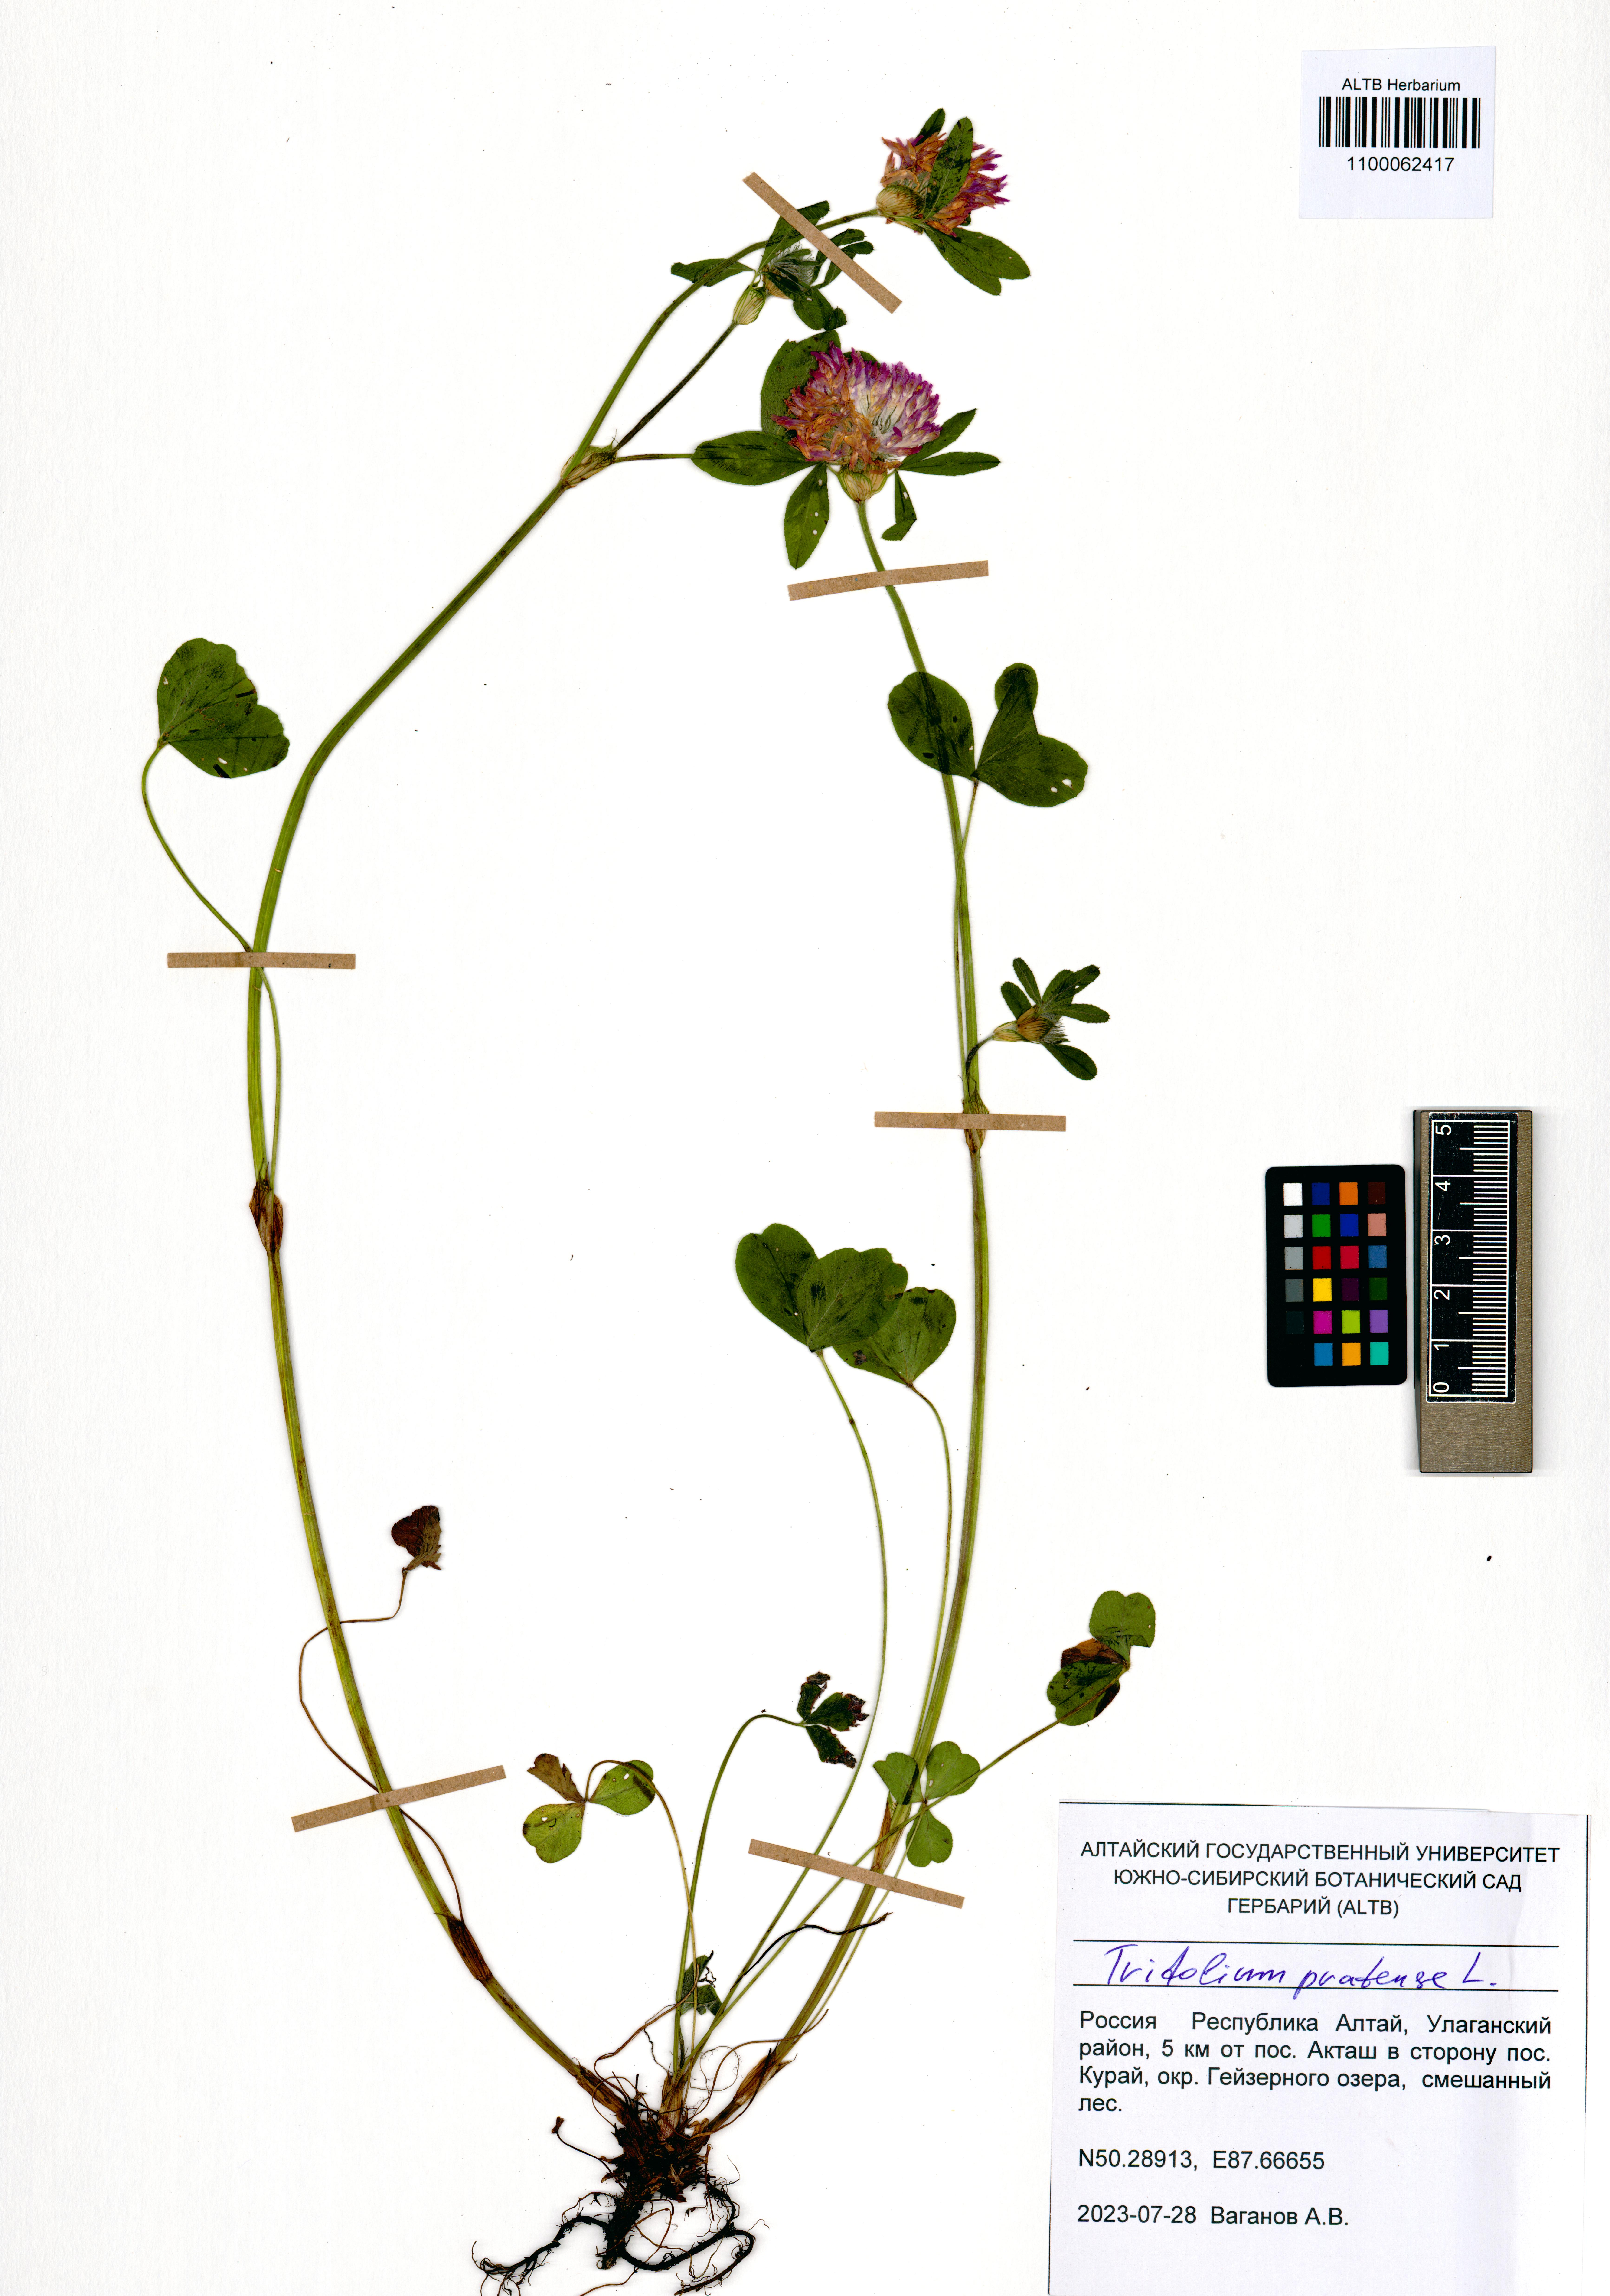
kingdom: Plantae
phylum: Tracheophyta
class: Magnoliopsida
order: Fabales
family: Fabaceae
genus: Trifolium
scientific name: Trifolium pratense
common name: Red clover
